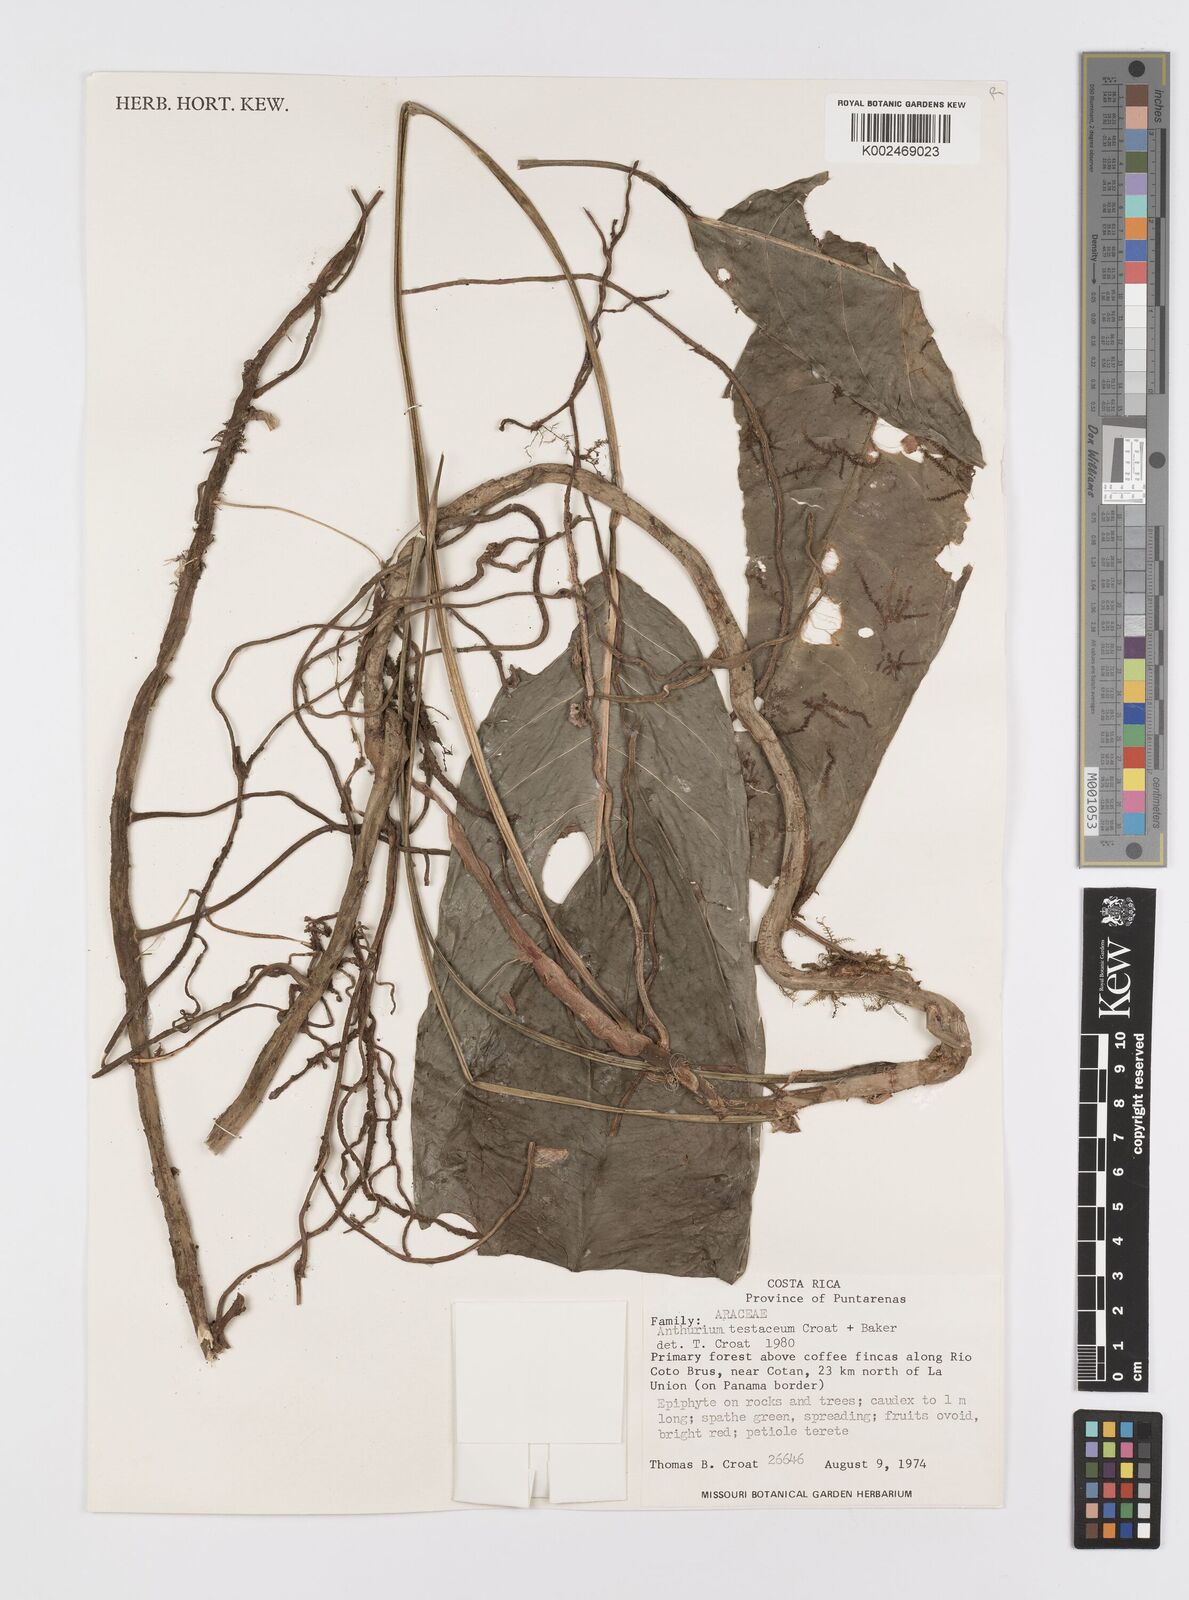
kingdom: Plantae
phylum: Tracheophyta
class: Liliopsida
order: Alismatales
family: Araceae
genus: Anthurium
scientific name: Anthurium testaceum
